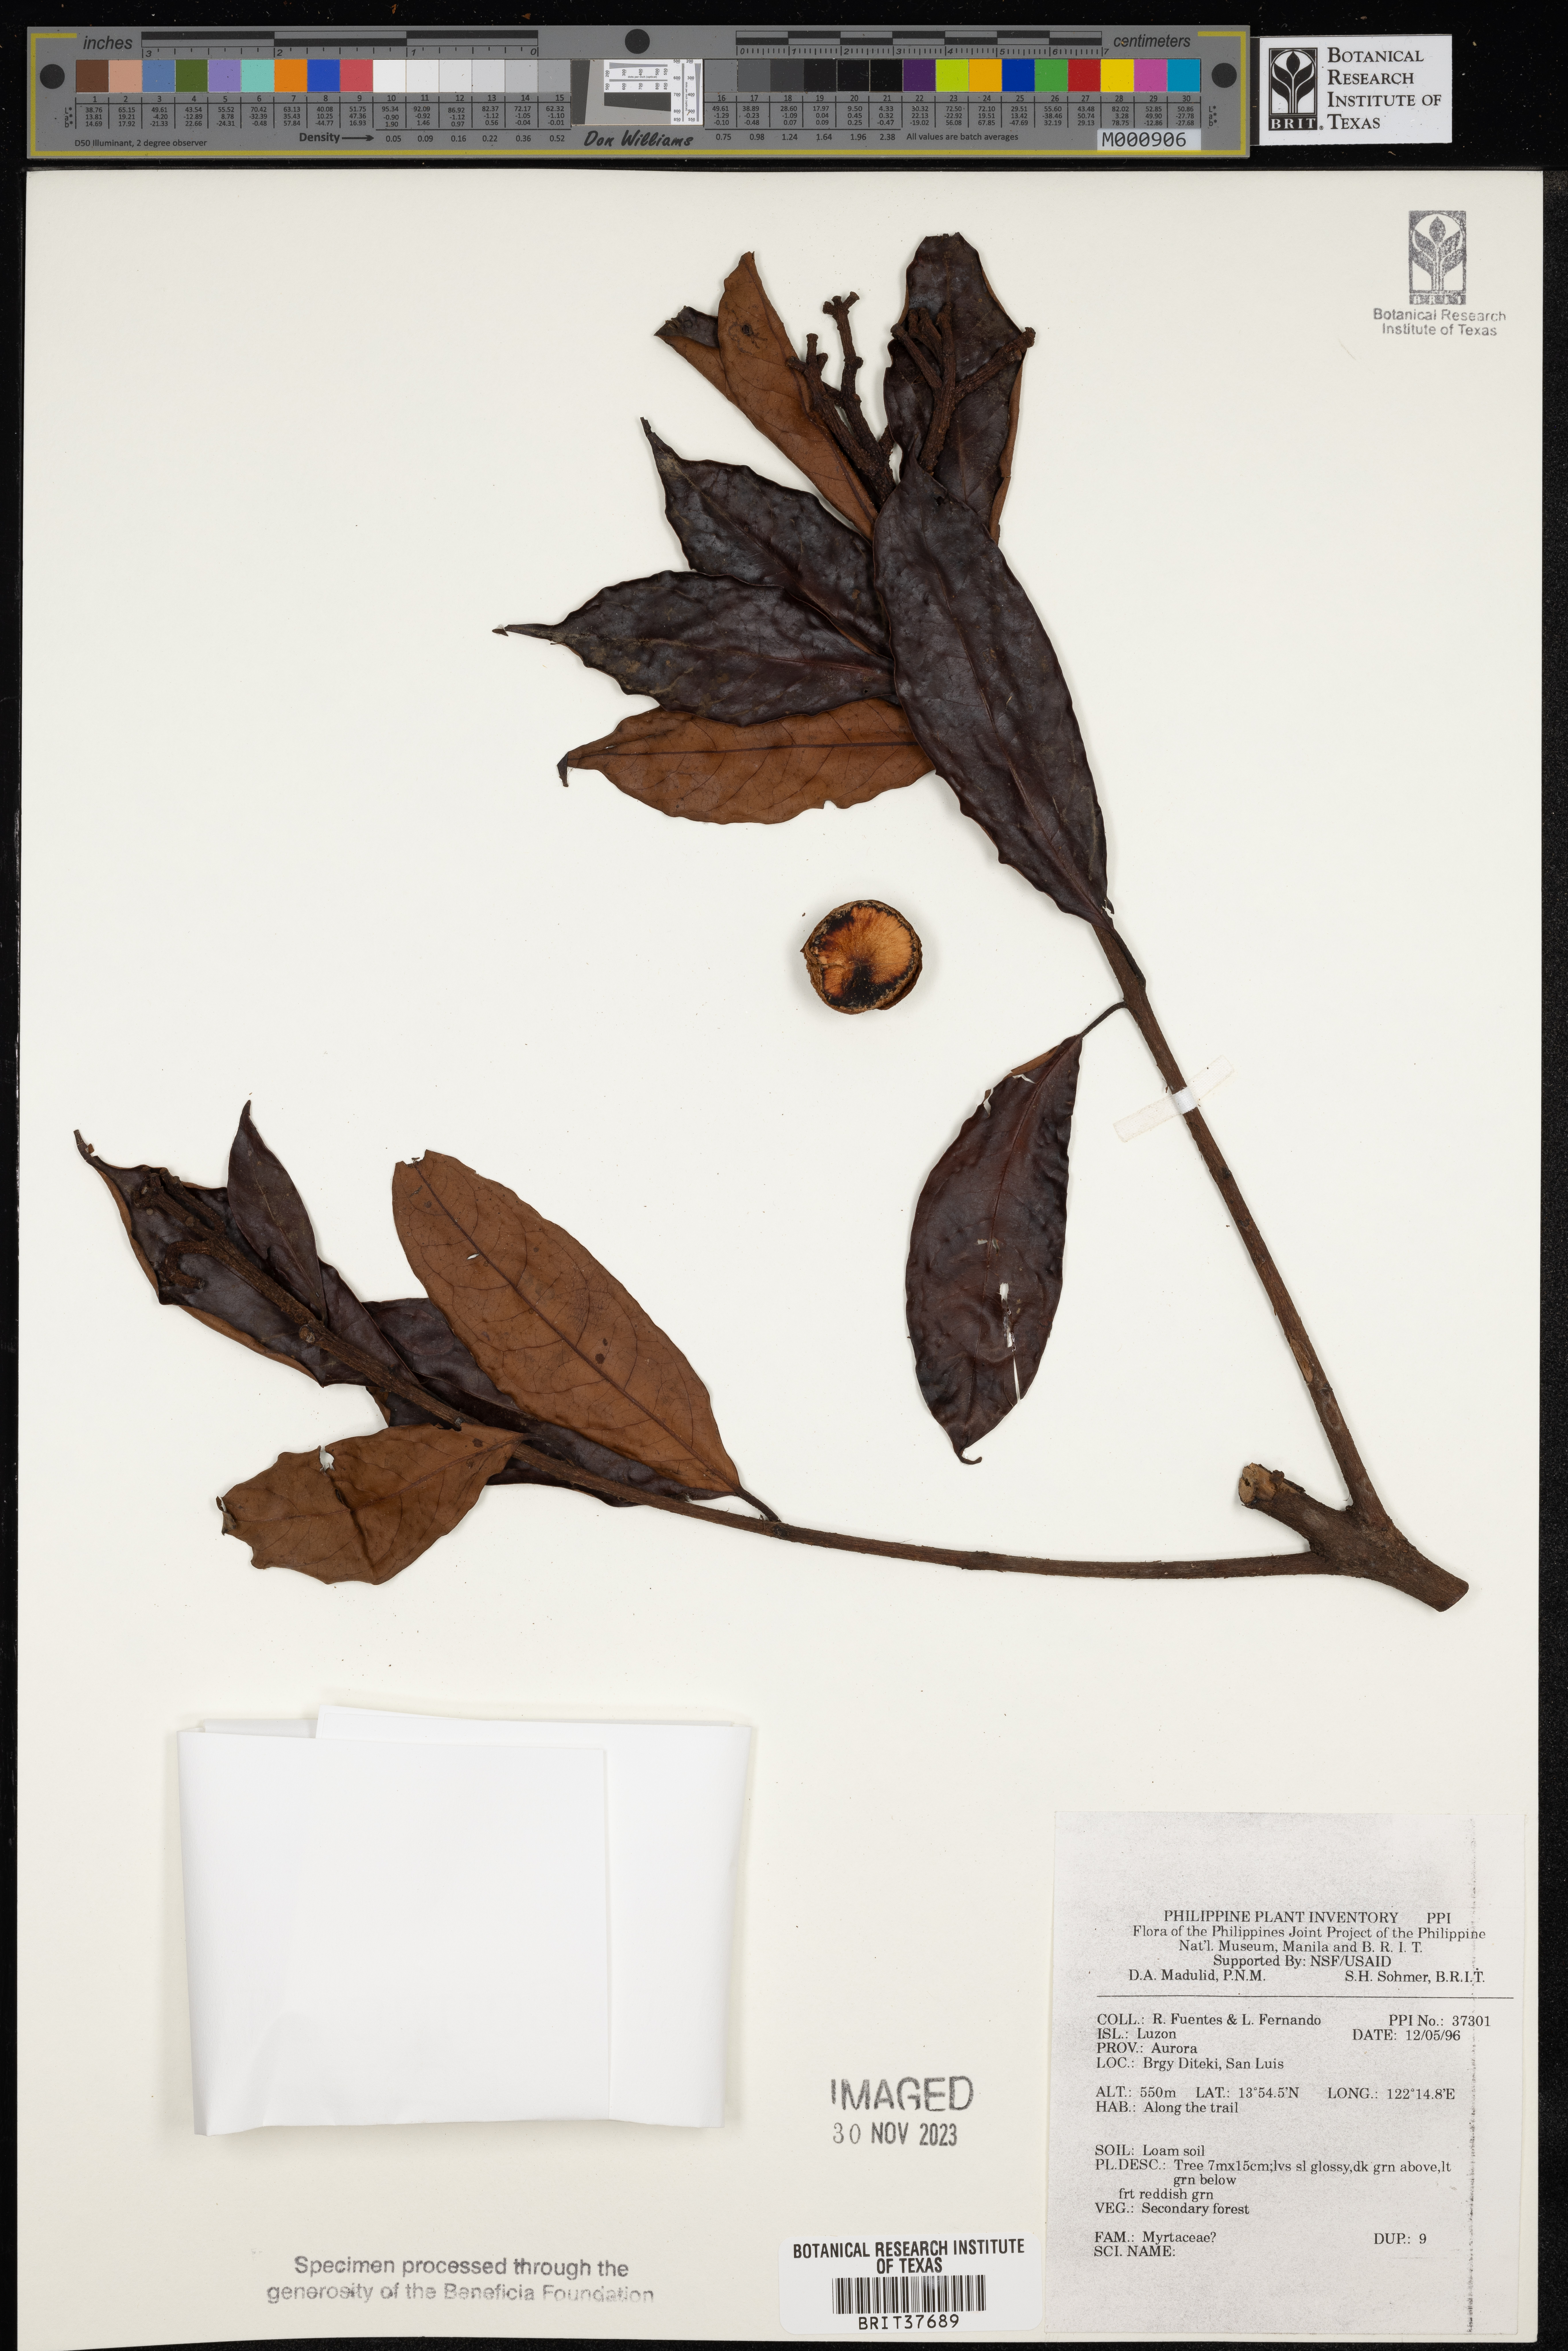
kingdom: Plantae
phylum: Tracheophyta
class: Magnoliopsida
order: Myrtales
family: Myrtaceae
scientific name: Myrtaceae
